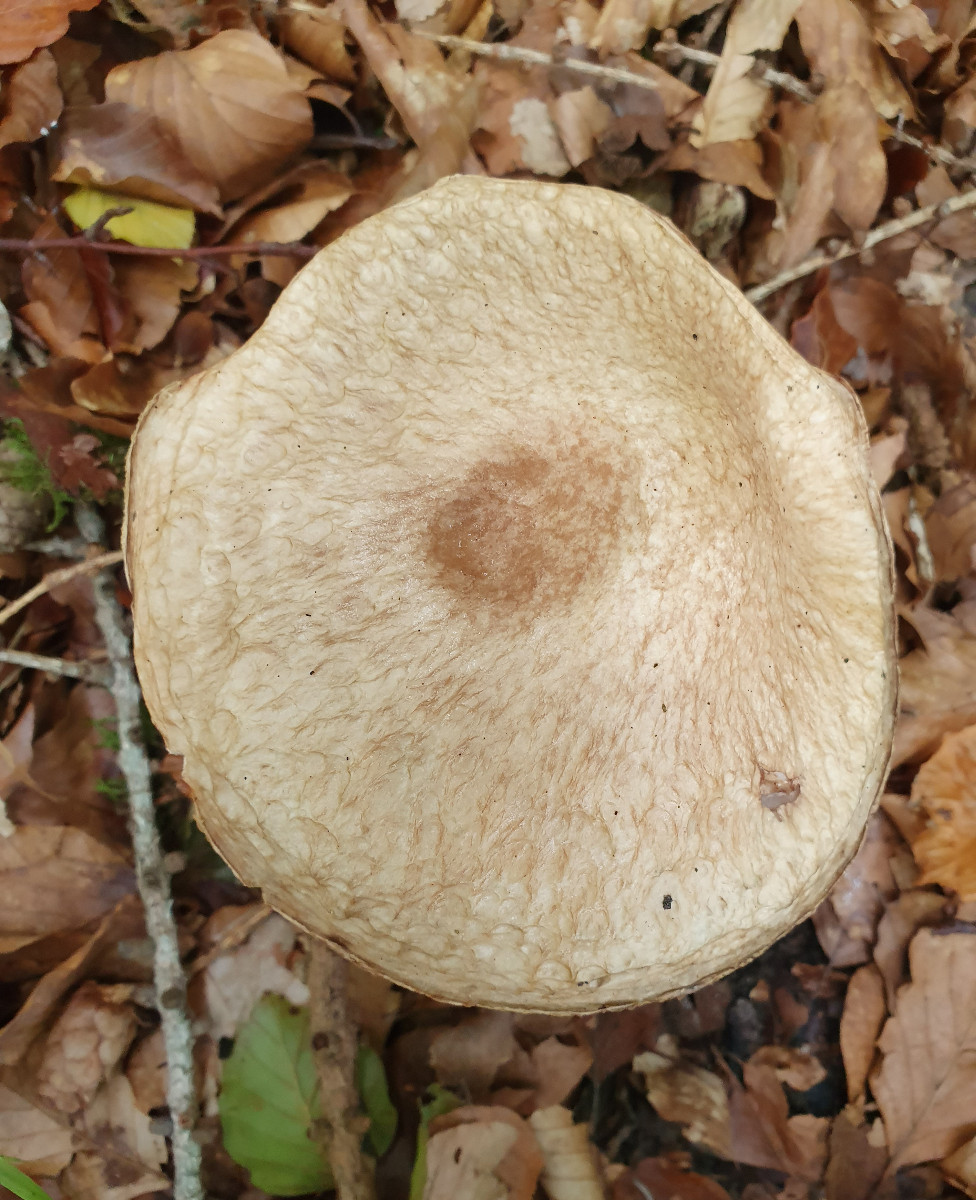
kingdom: Fungi
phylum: Basidiomycota
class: Agaricomycetes
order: Boletales
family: Suillaceae
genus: Suillus
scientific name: Suillus viscidus
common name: olivengrå slimrørhat
